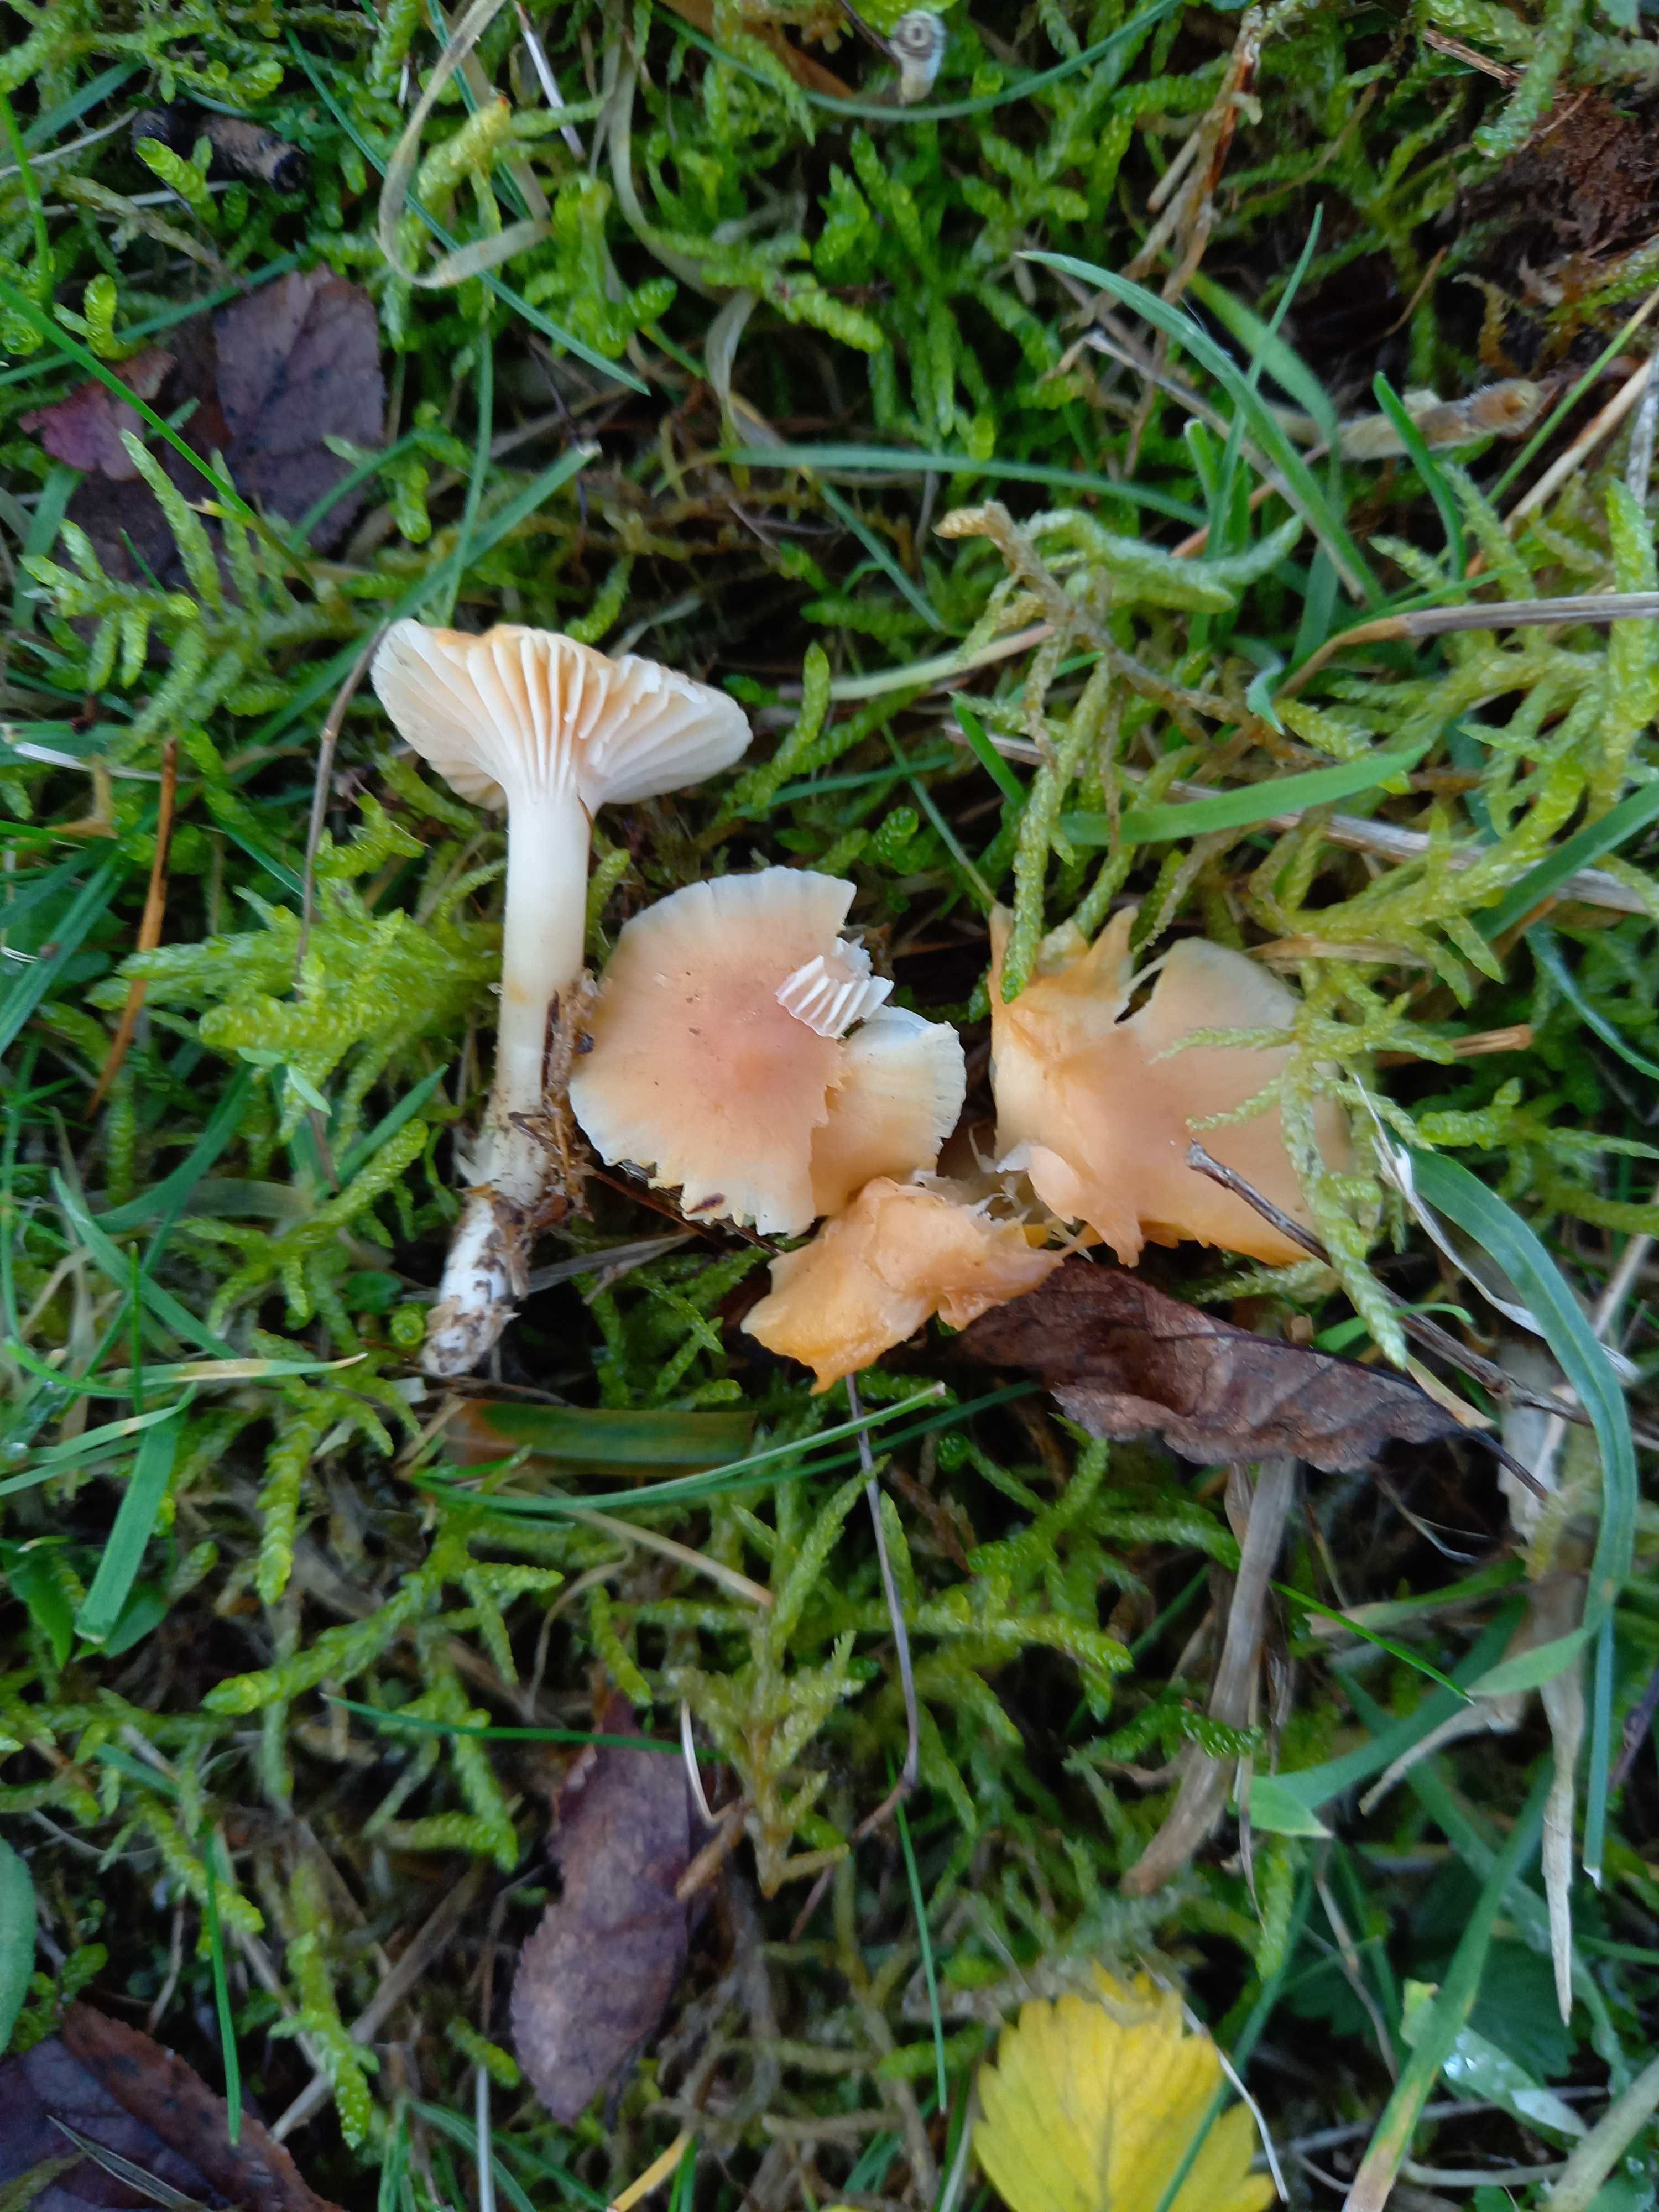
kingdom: Fungi
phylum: Basidiomycota
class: Agaricomycetes
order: Agaricales
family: Hygrophoraceae
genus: Cuphophyllus
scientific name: Cuphophyllus pratensis
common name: eng-vokshat
